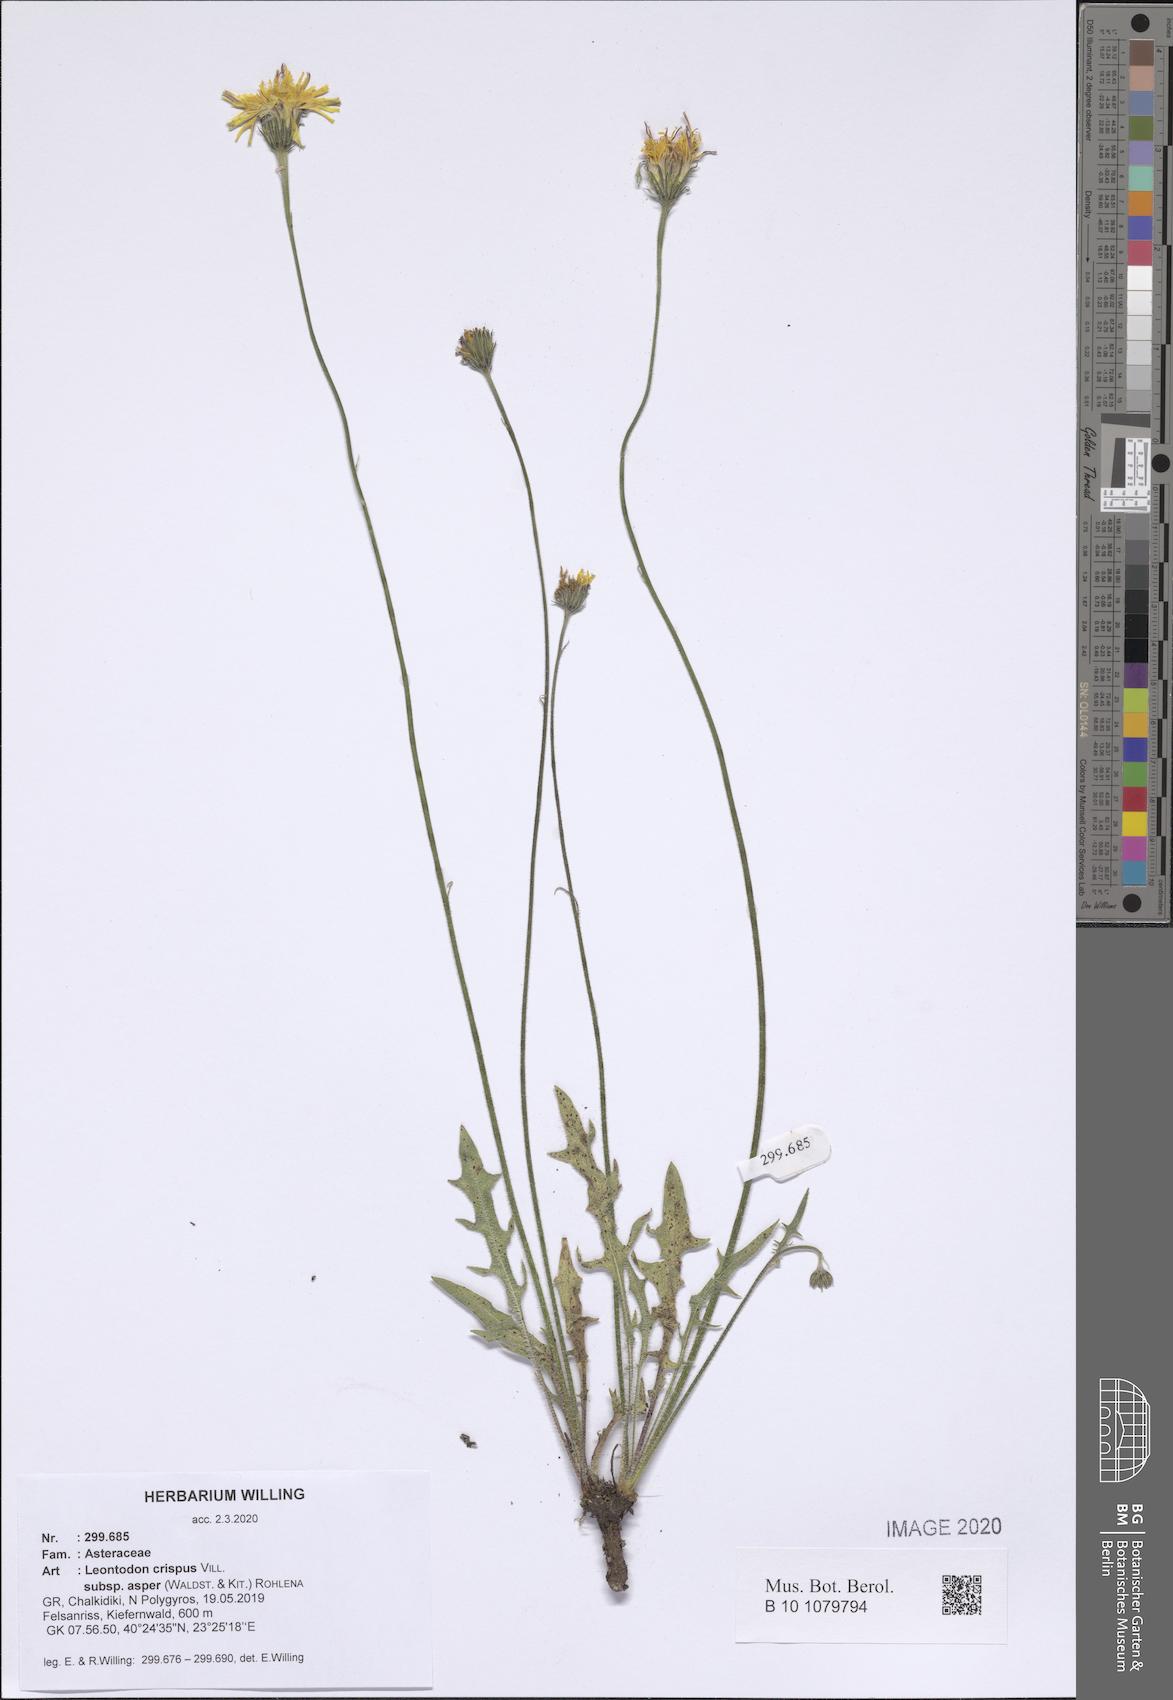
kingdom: Plantae
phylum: Tracheophyta
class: Magnoliopsida
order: Asterales
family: Asteraceae
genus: Leontodon
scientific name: Leontodon biscutellifolius
